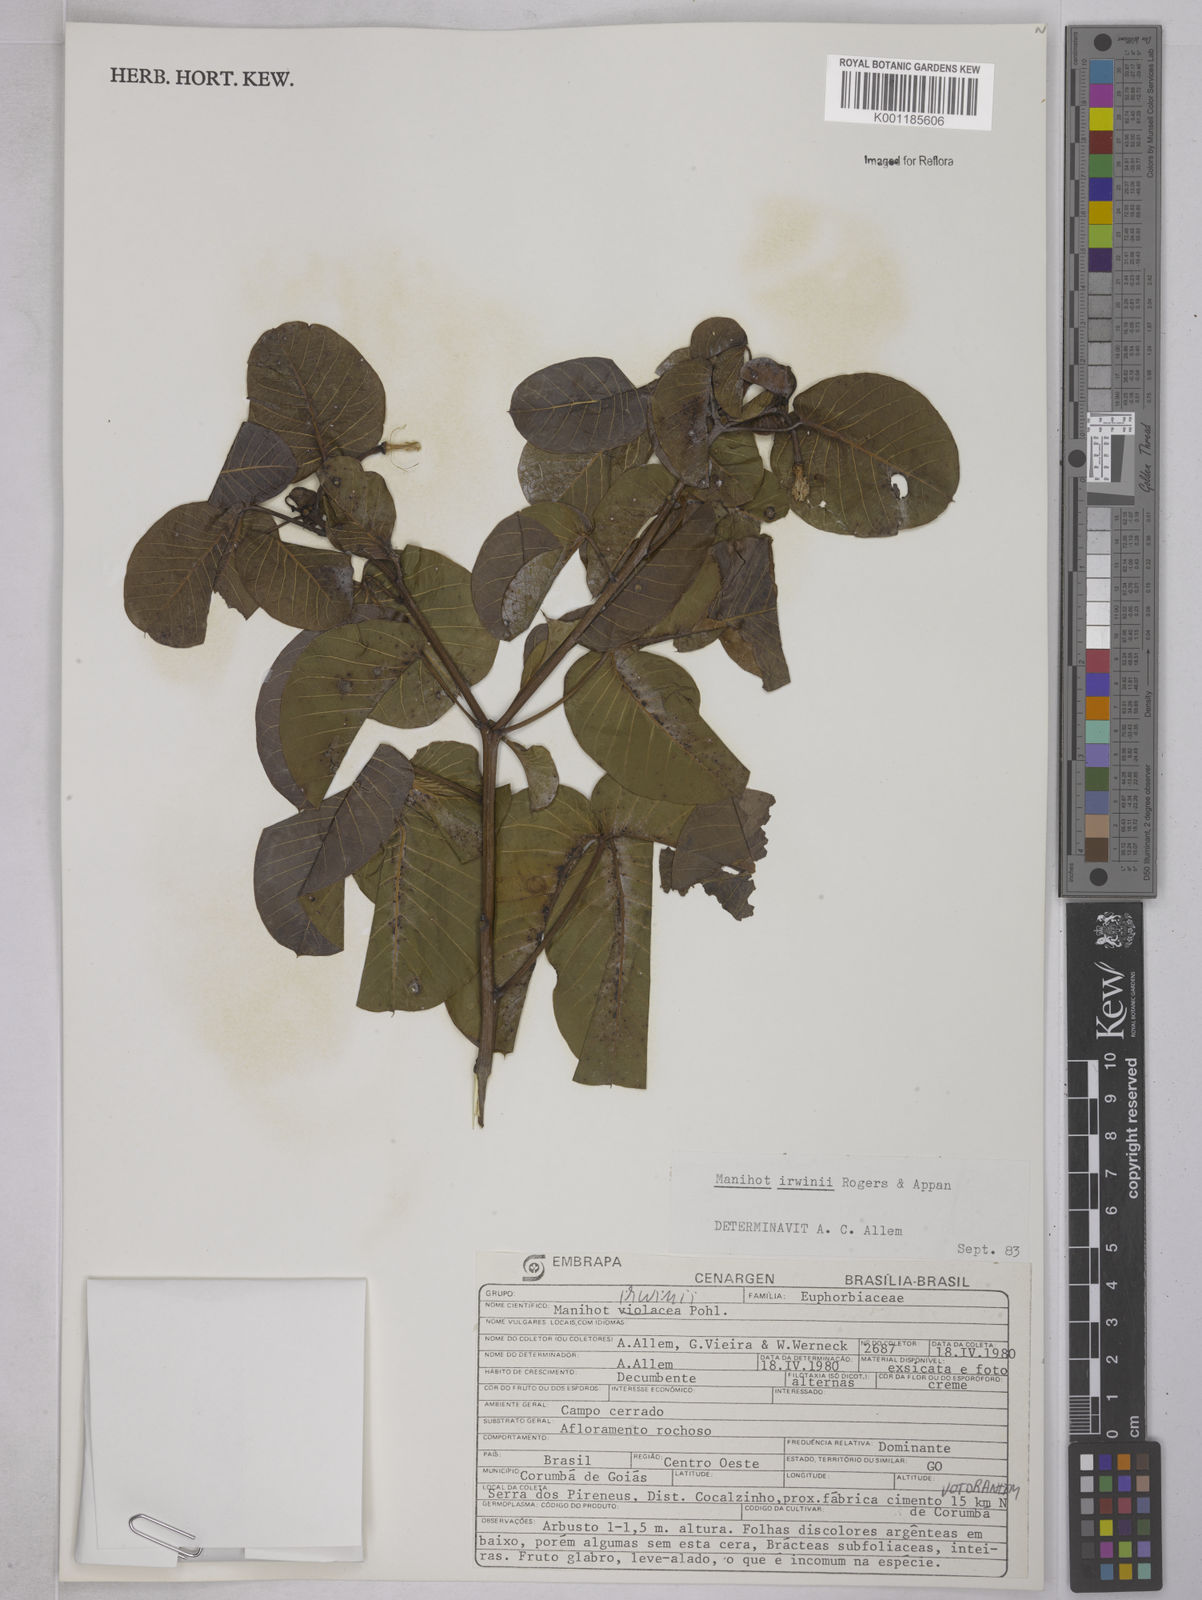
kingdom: Plantae
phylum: Tracheophyta
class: Magnoliopsida
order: Malpighiales
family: Euphorbiaceae
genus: Manihot
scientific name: Manihot irwinii
